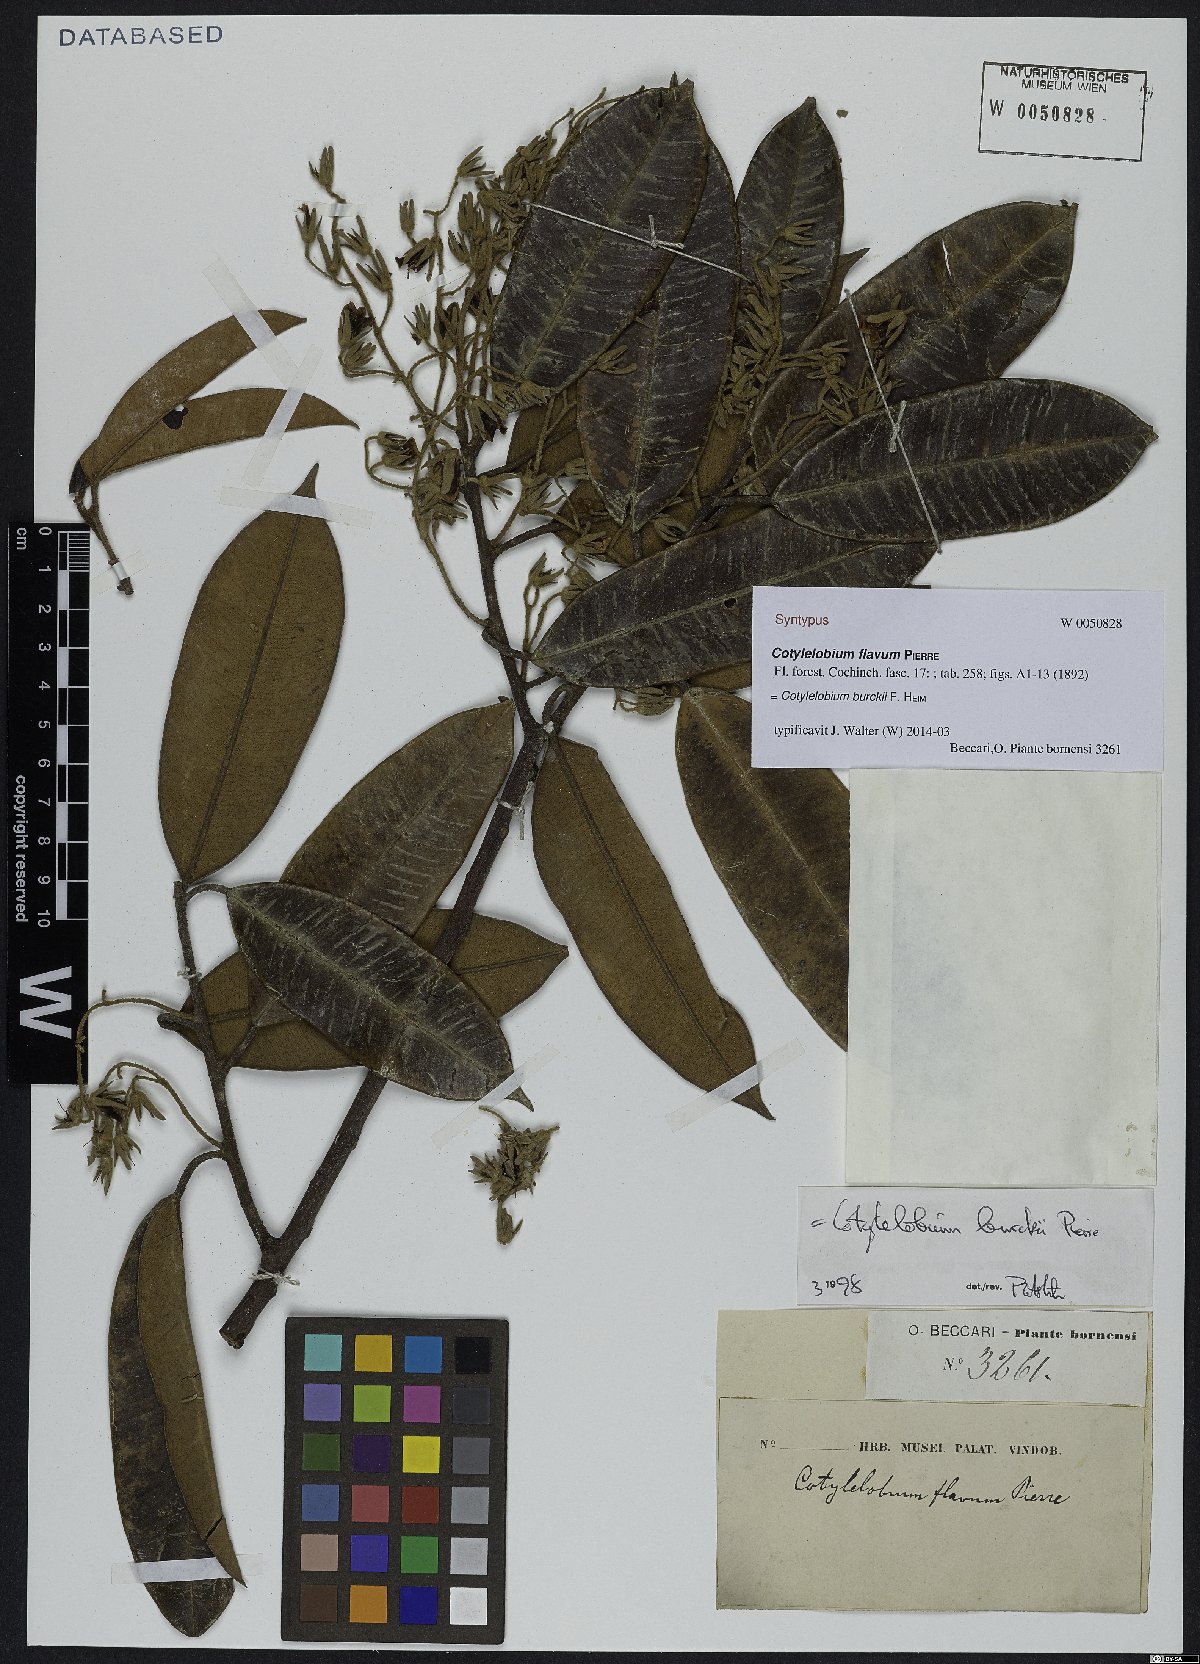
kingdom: Plantae
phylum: Tracheophyta
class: Magnoliopsida
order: Malvales
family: Dipterocarpaceae
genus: Cotylelobium
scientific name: Cotylelobium burckii
